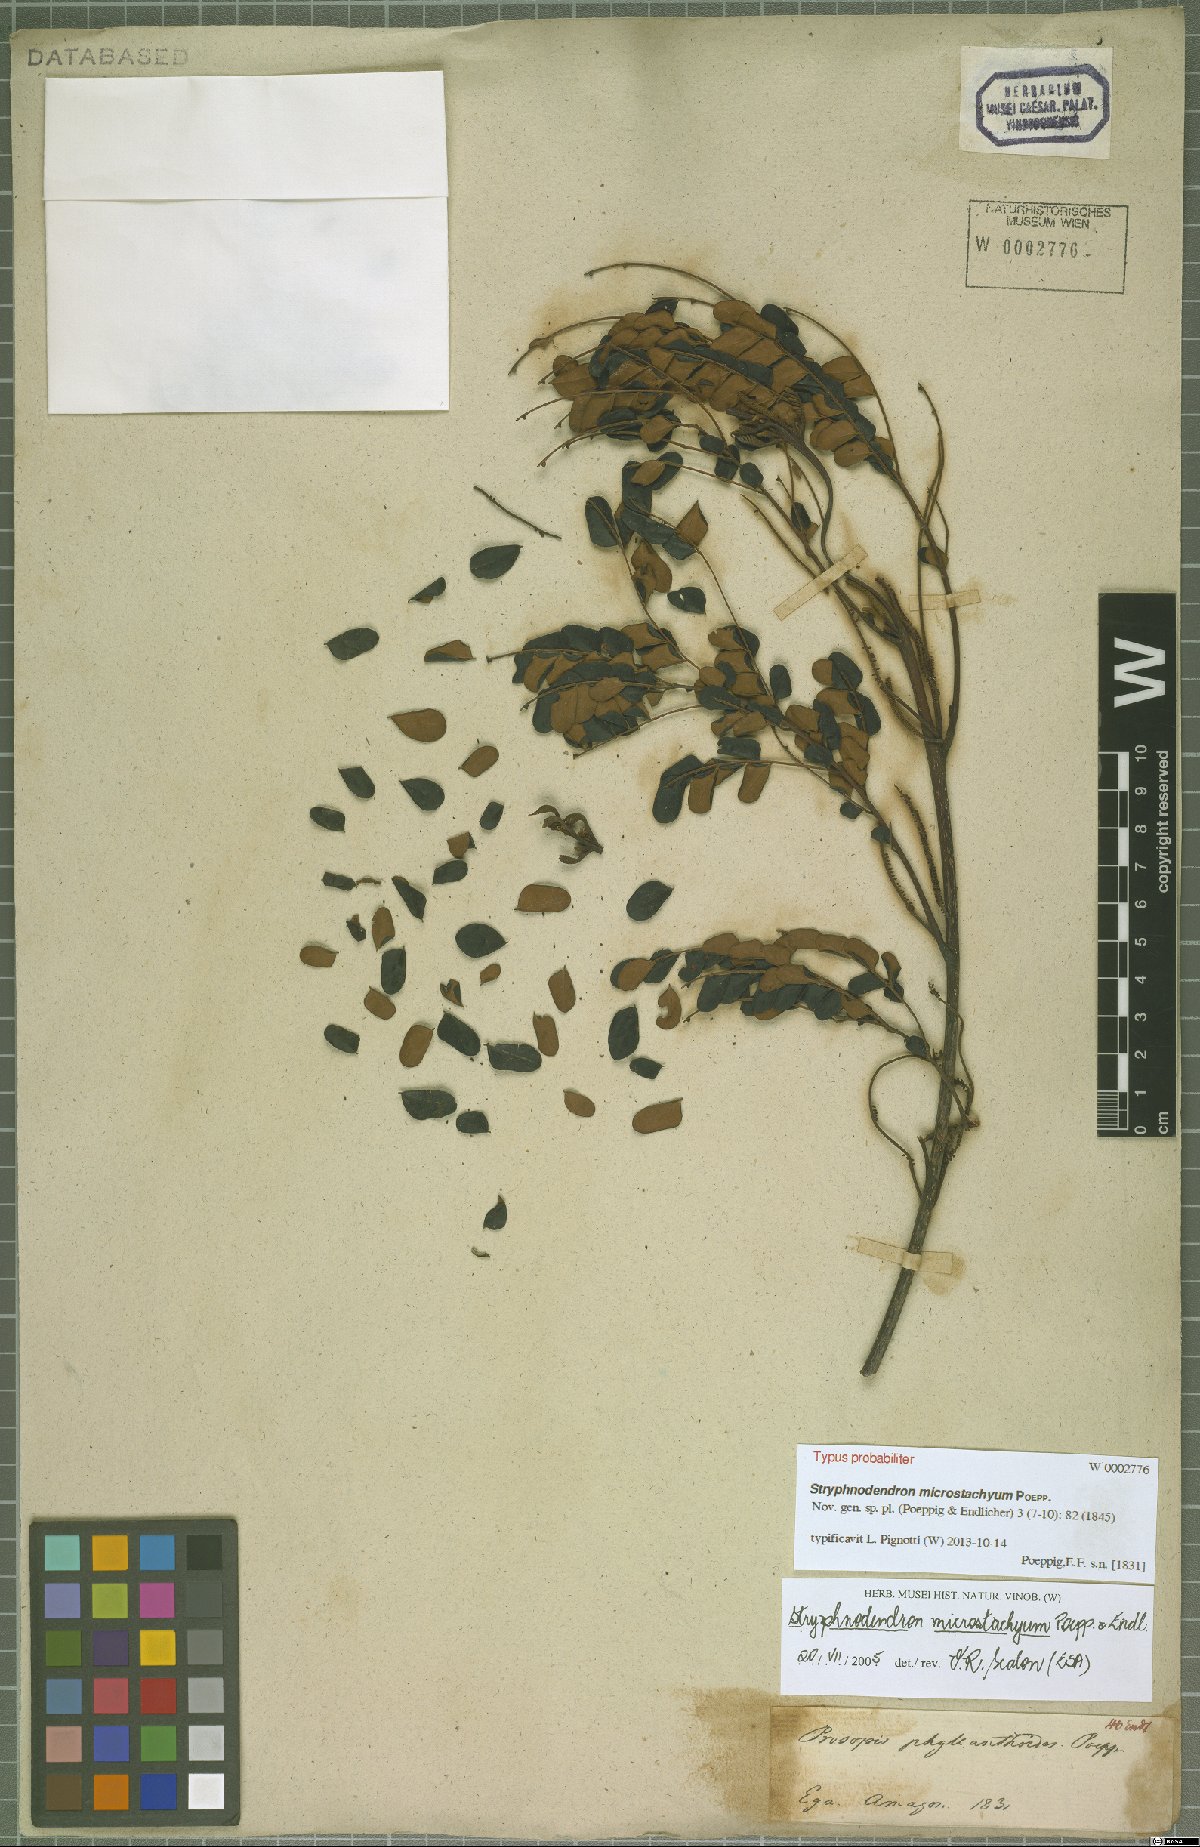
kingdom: Plantae
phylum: Tracheophyta
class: Magnoliopsida
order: Fabales
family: Fabaceae
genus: Stryphnodendron
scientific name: Stryphnodendron microstachyum
